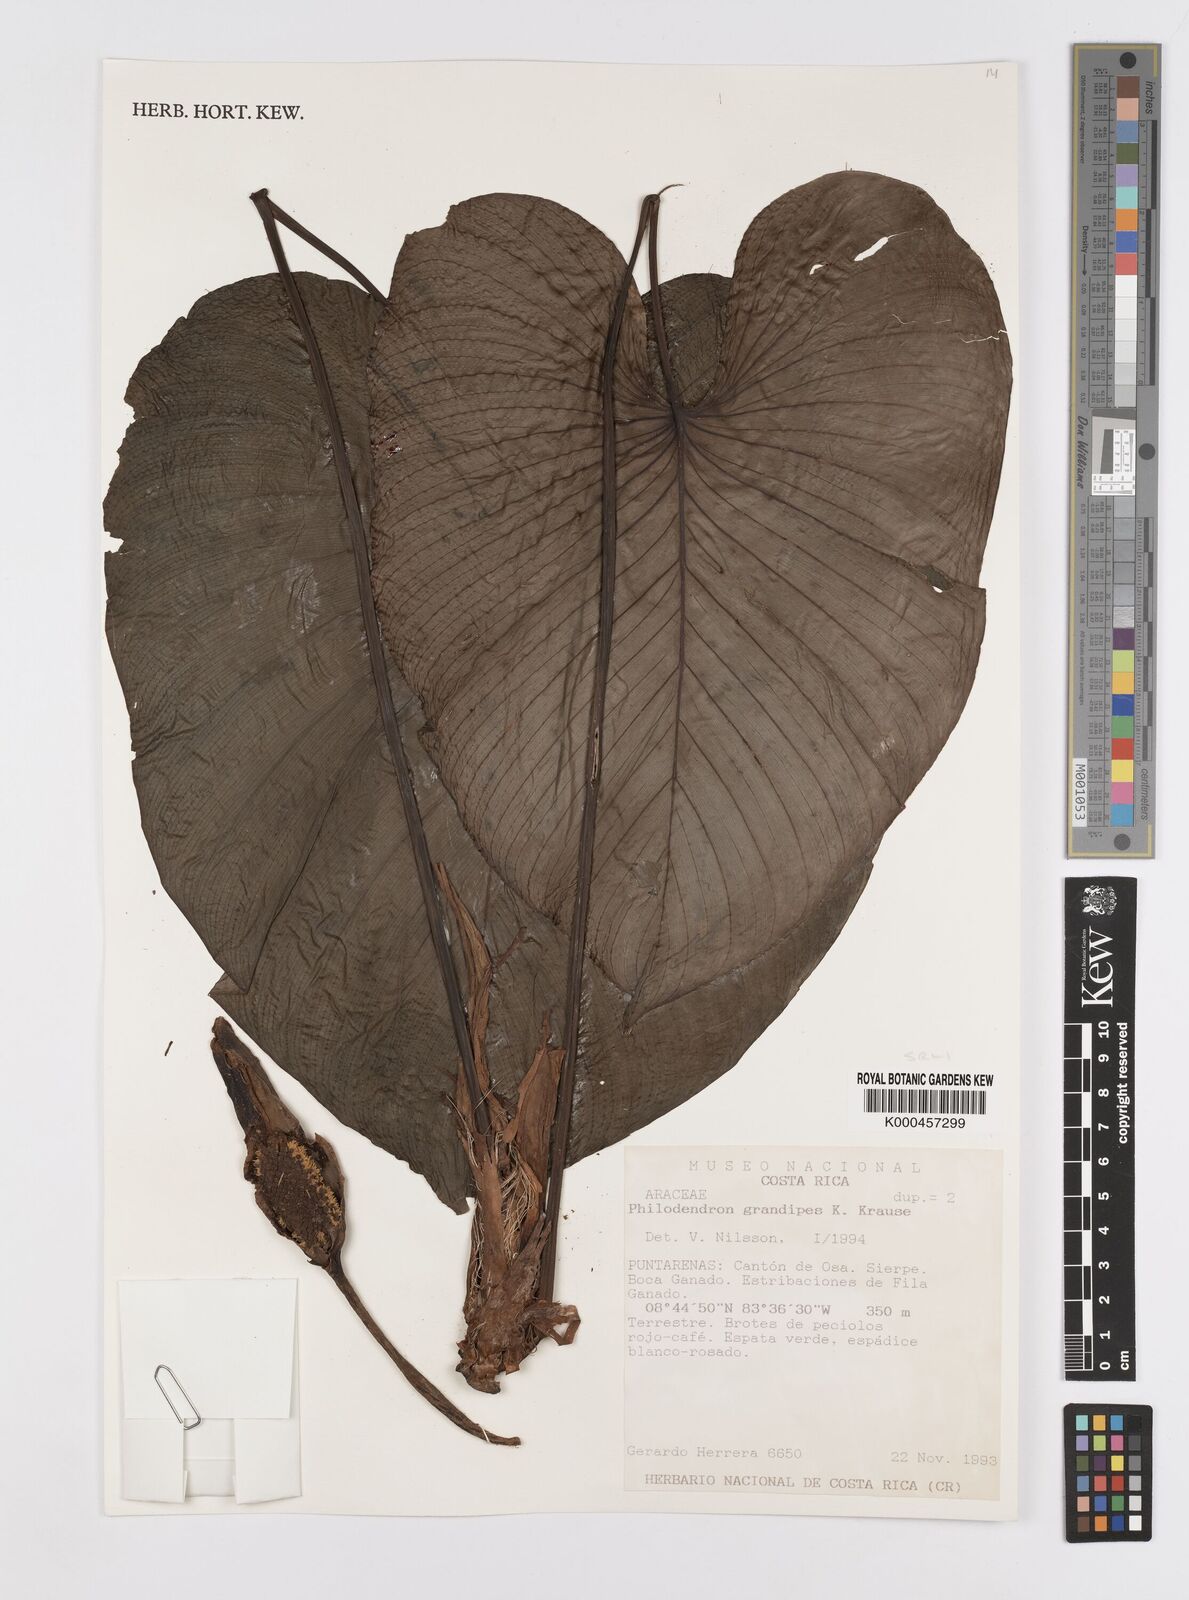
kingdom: Plantae
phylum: Tracheophyta
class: Liliopsida
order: Alismatales
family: Araceae
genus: Philodendron
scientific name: Philodendron grandipes
